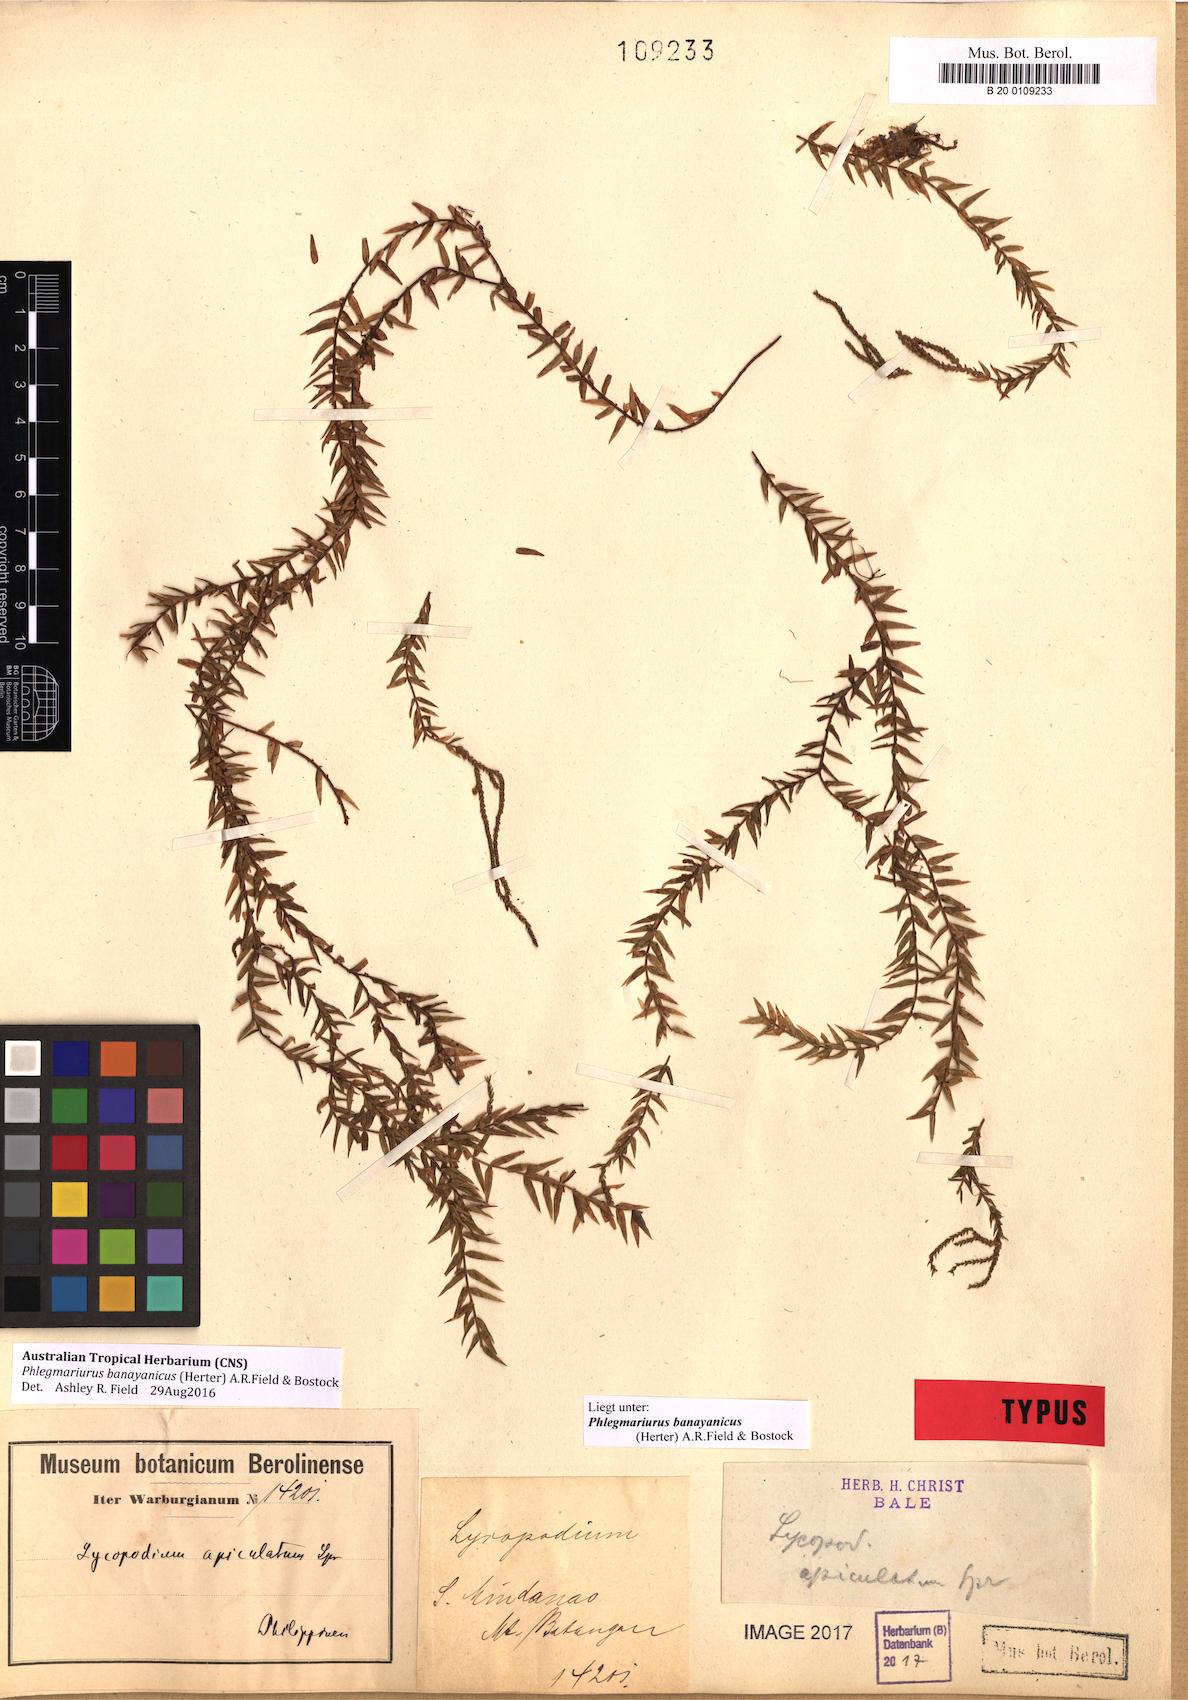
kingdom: Plantae
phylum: Tracheophyta
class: Lycopodiopsida
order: Lycopodiales
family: Lycopodiaceae
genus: Phlegmariurus
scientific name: Phlegmariurus banayanicus
